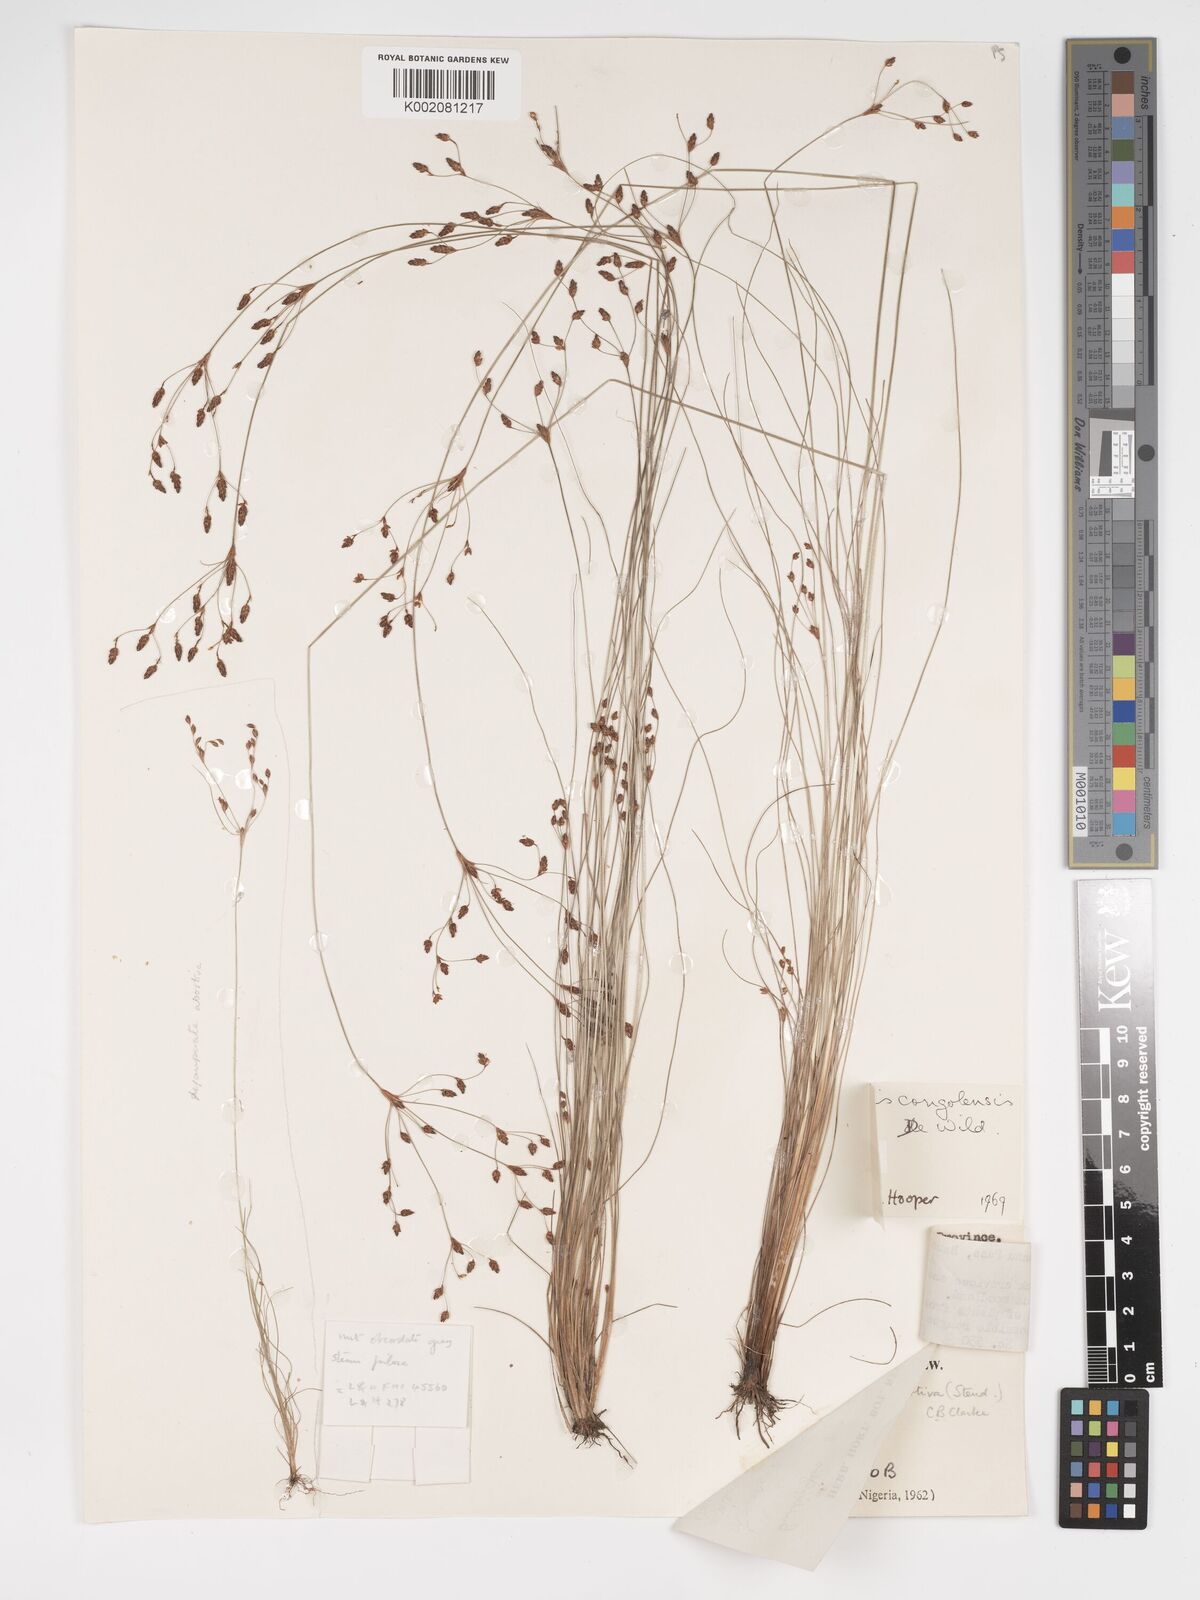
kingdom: Plantae
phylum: Tracheophyta
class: Liliopsida
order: Poales
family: Cyperaceae
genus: Bulbostylis
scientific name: Bulbostylis congolensis
